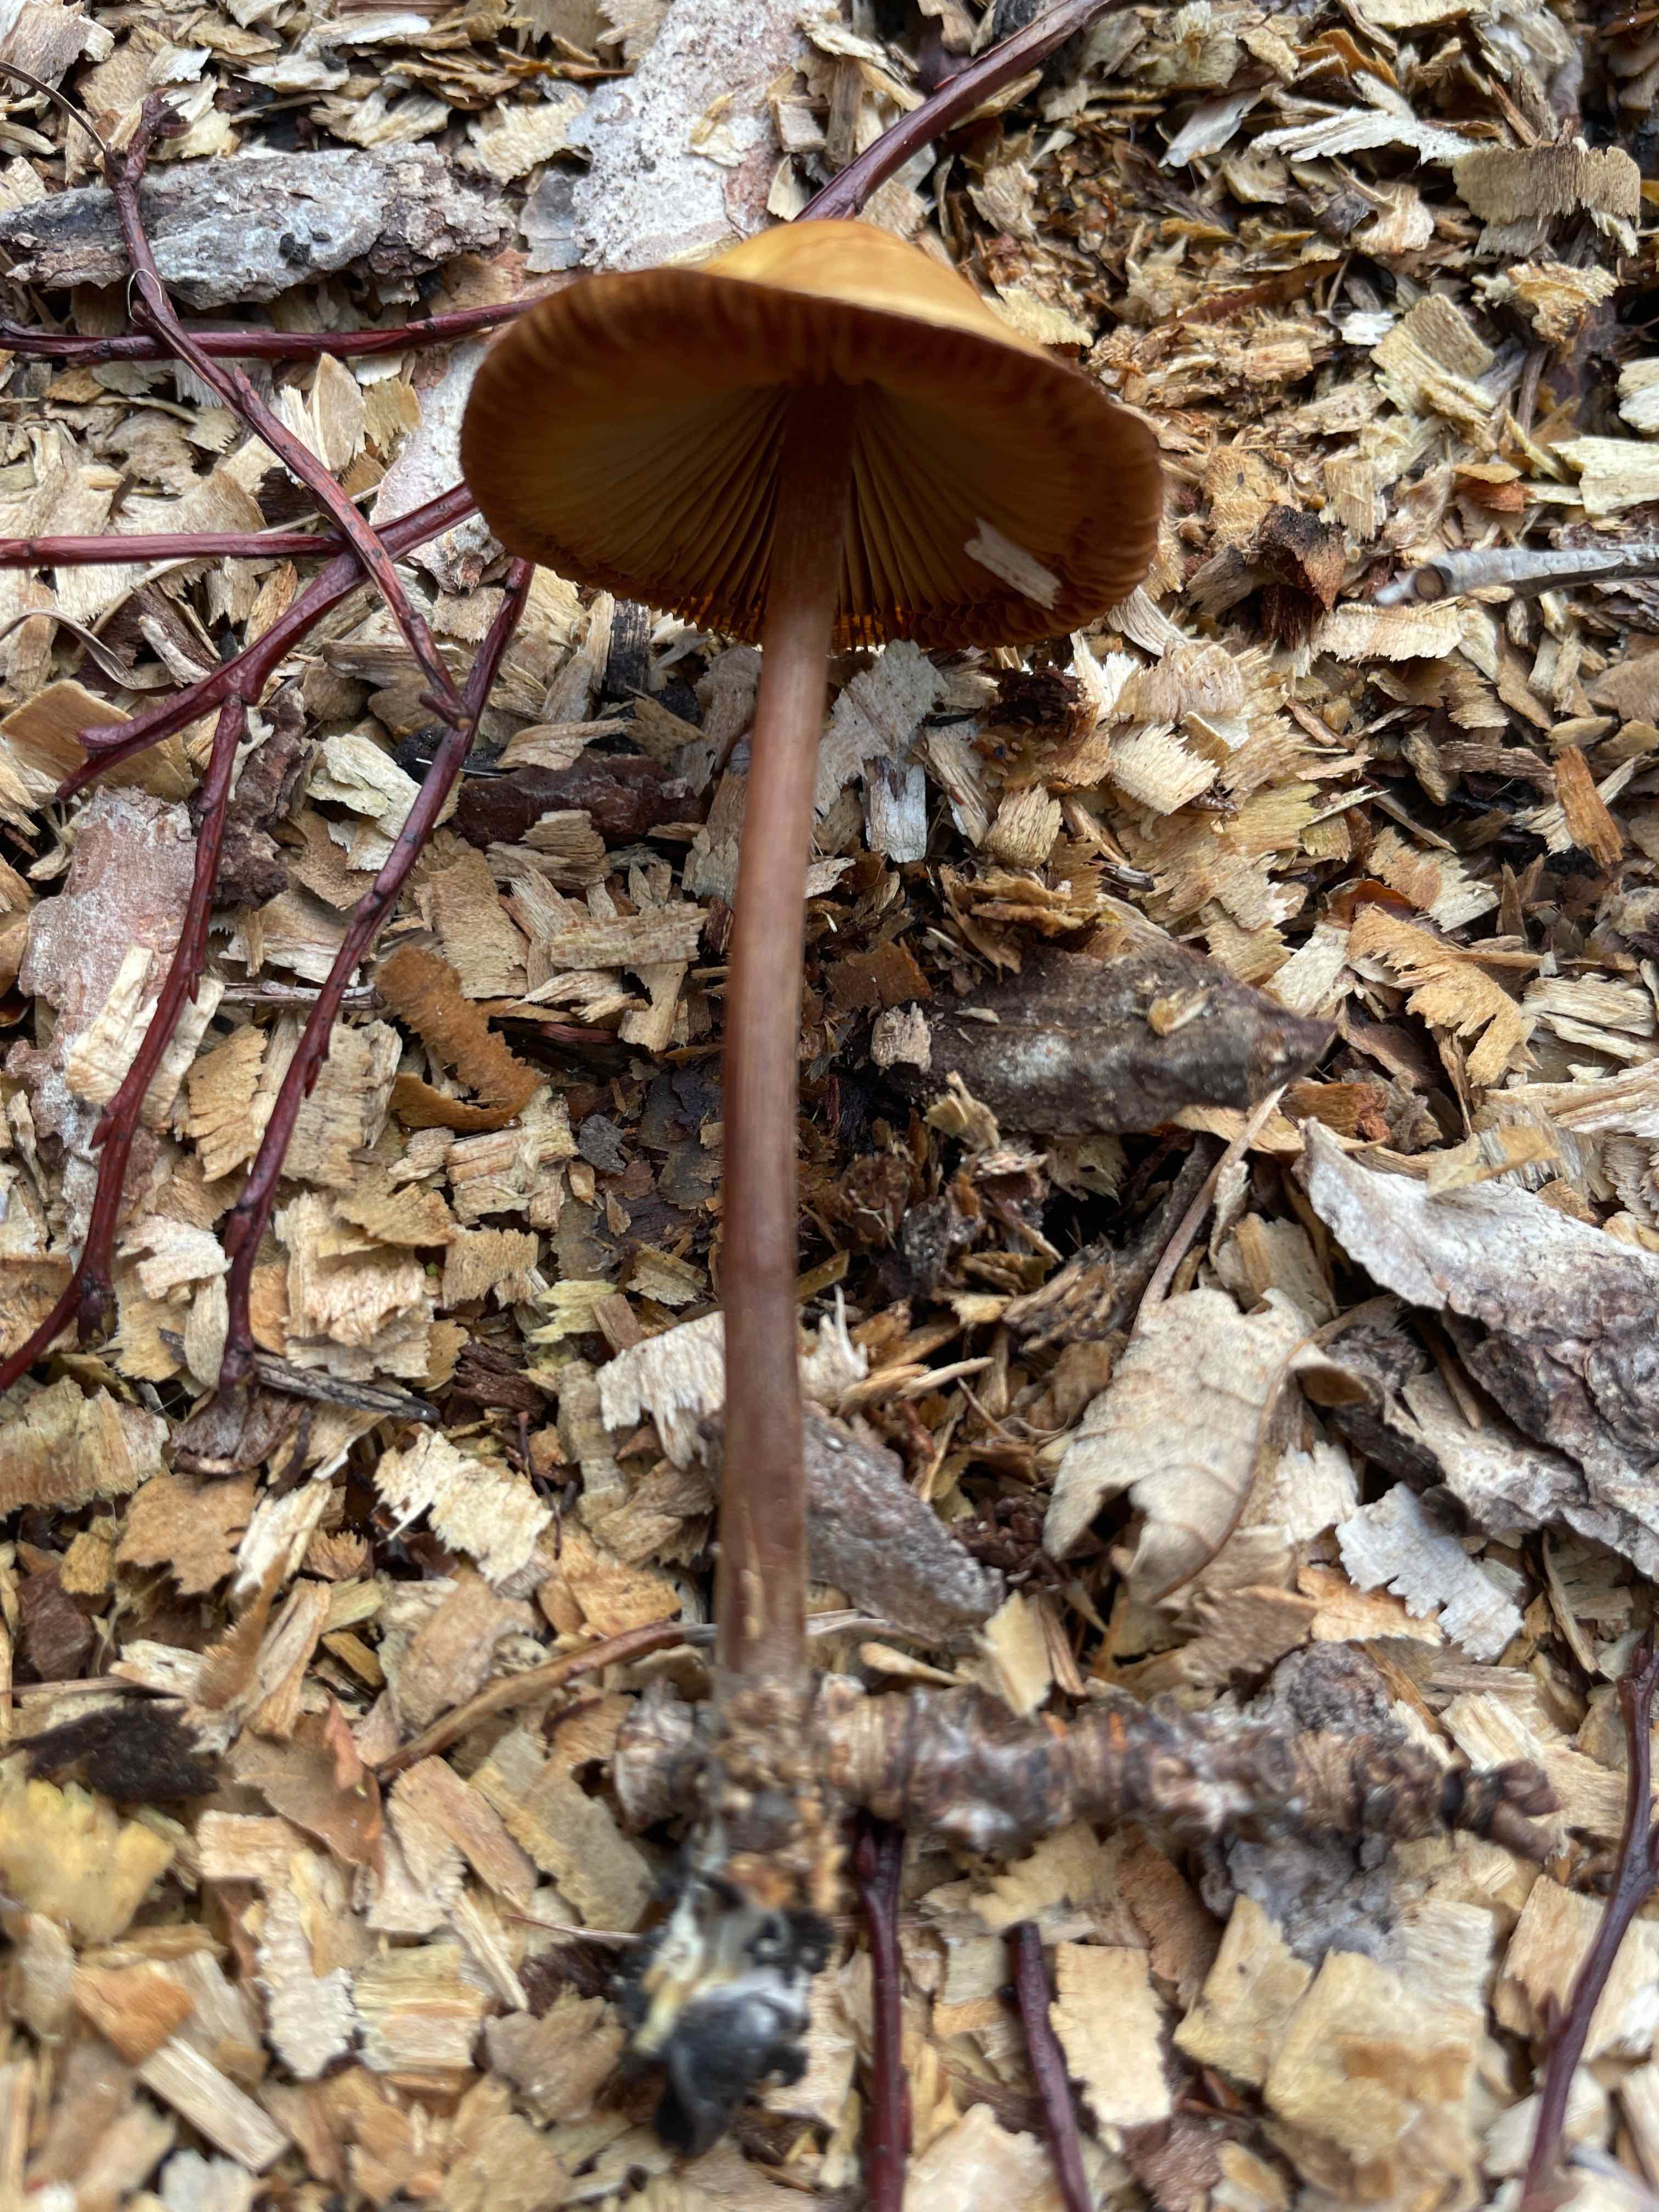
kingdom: Fungi
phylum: Basidiomycota
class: Agaricomycetes
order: Agaricales
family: Bolbitiaceae
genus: Conocybe
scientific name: Conocybe
